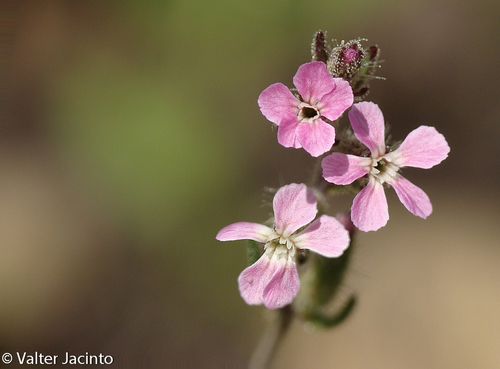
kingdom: Plantae
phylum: Tracheophyta
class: Magnoliopsida
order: Caryophyllales
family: Caryophyllaceae
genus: Silene
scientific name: Silene gallica
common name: Small-flowered catchfly
